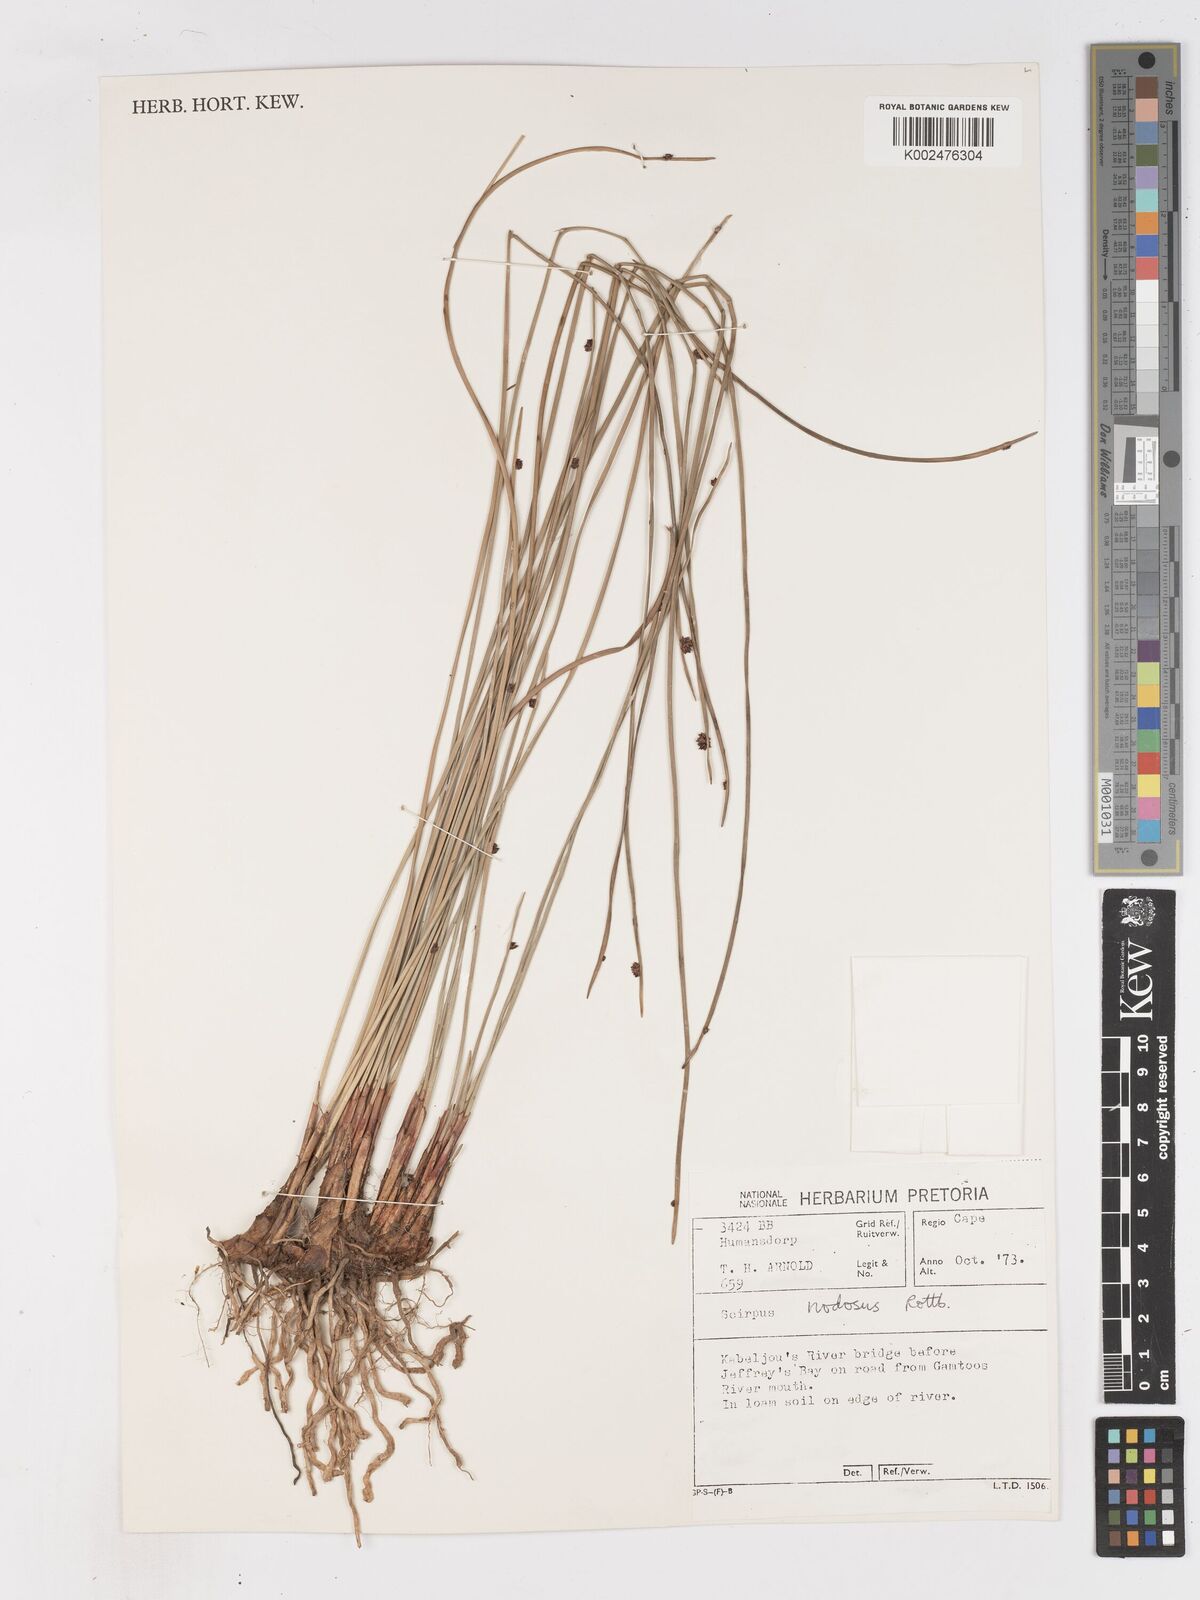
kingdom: Plantae
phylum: Tracheophyta
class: Liliopsida
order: Poales
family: Cyperaceae
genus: Ficinia
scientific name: Ficinia nodosa
